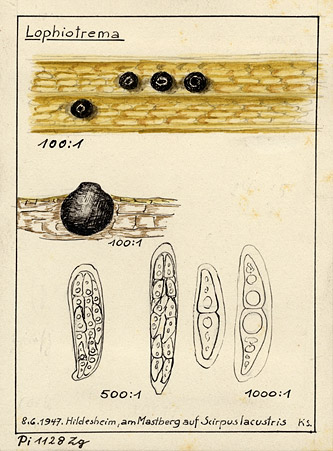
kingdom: Fungi
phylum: Ascomycota
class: Dothideomycetes
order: Pleosporales
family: Lophiostomataceae
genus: Lophiotrema
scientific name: Lophiotrema
